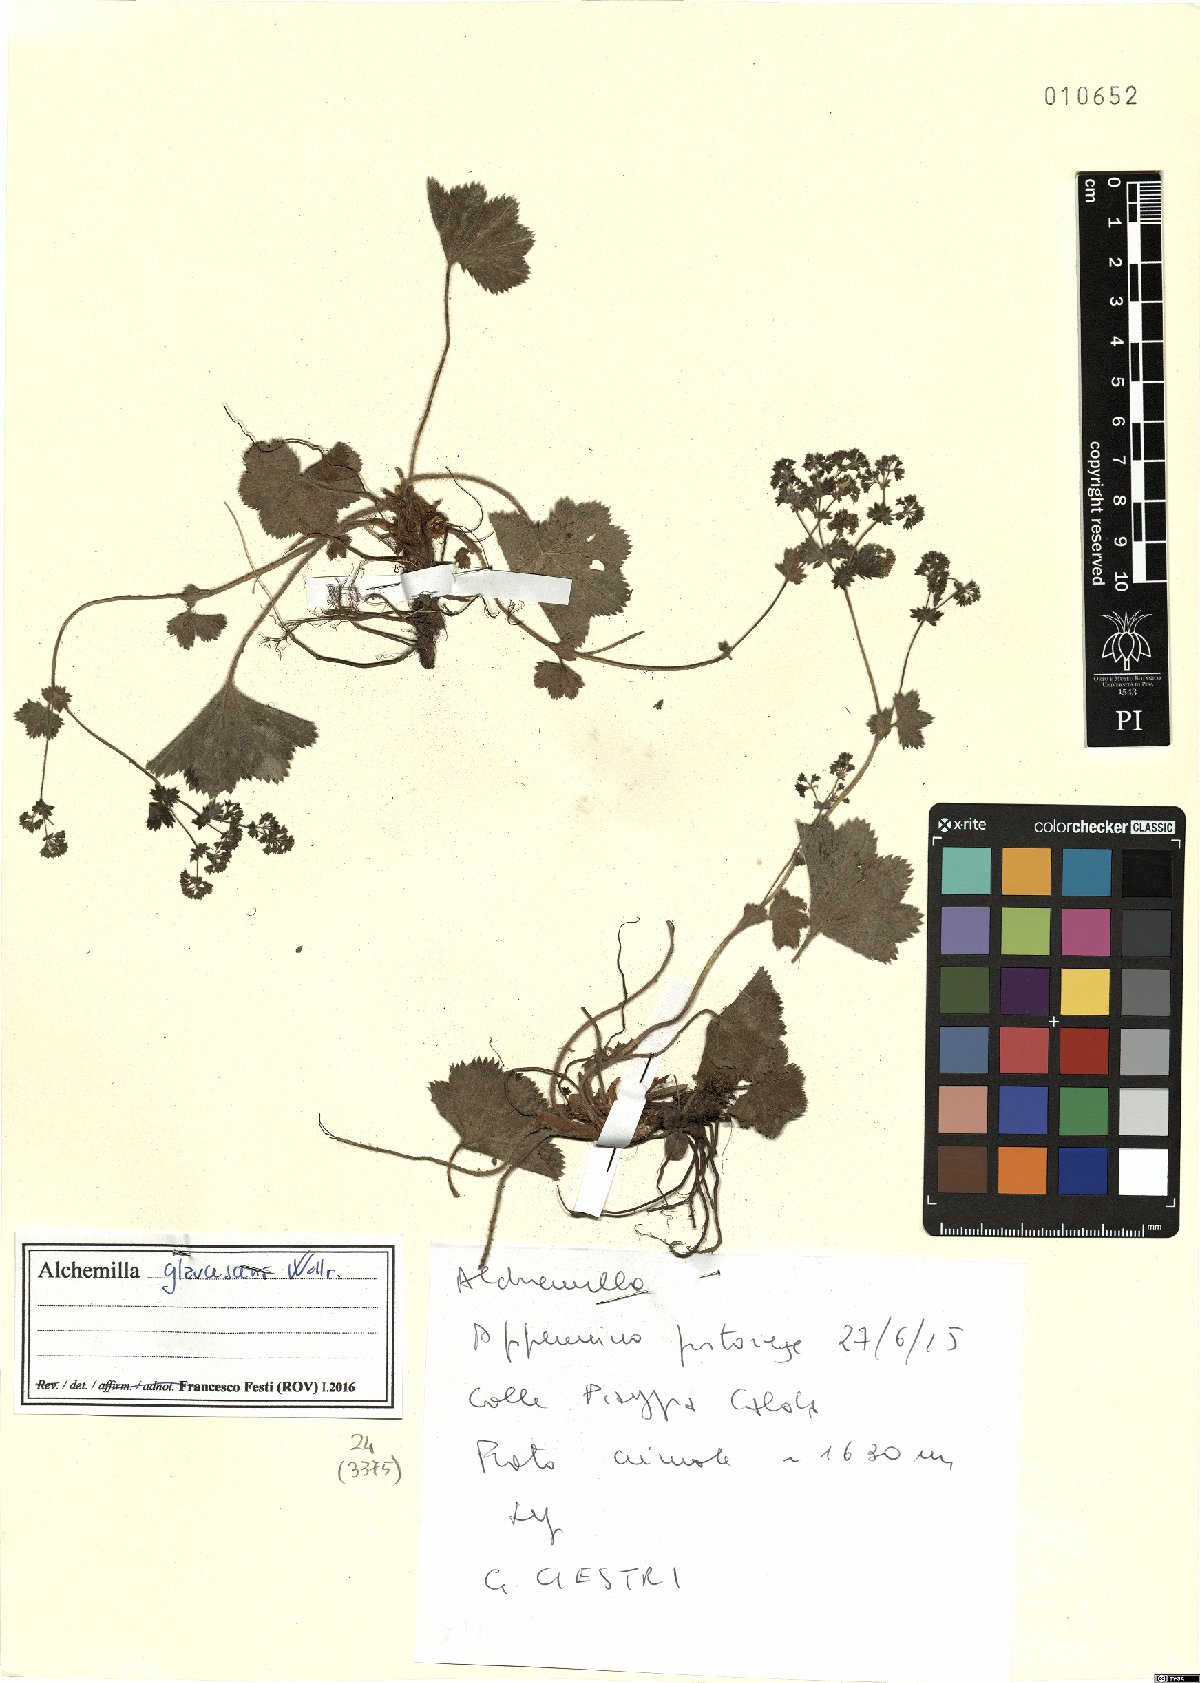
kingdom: Plantae
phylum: Tracheophyta
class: Magnoliopsida
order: Rosales
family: Rosaceae
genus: Alchemilla
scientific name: Alchemilla glaucescens
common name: Silky lady's mantle
